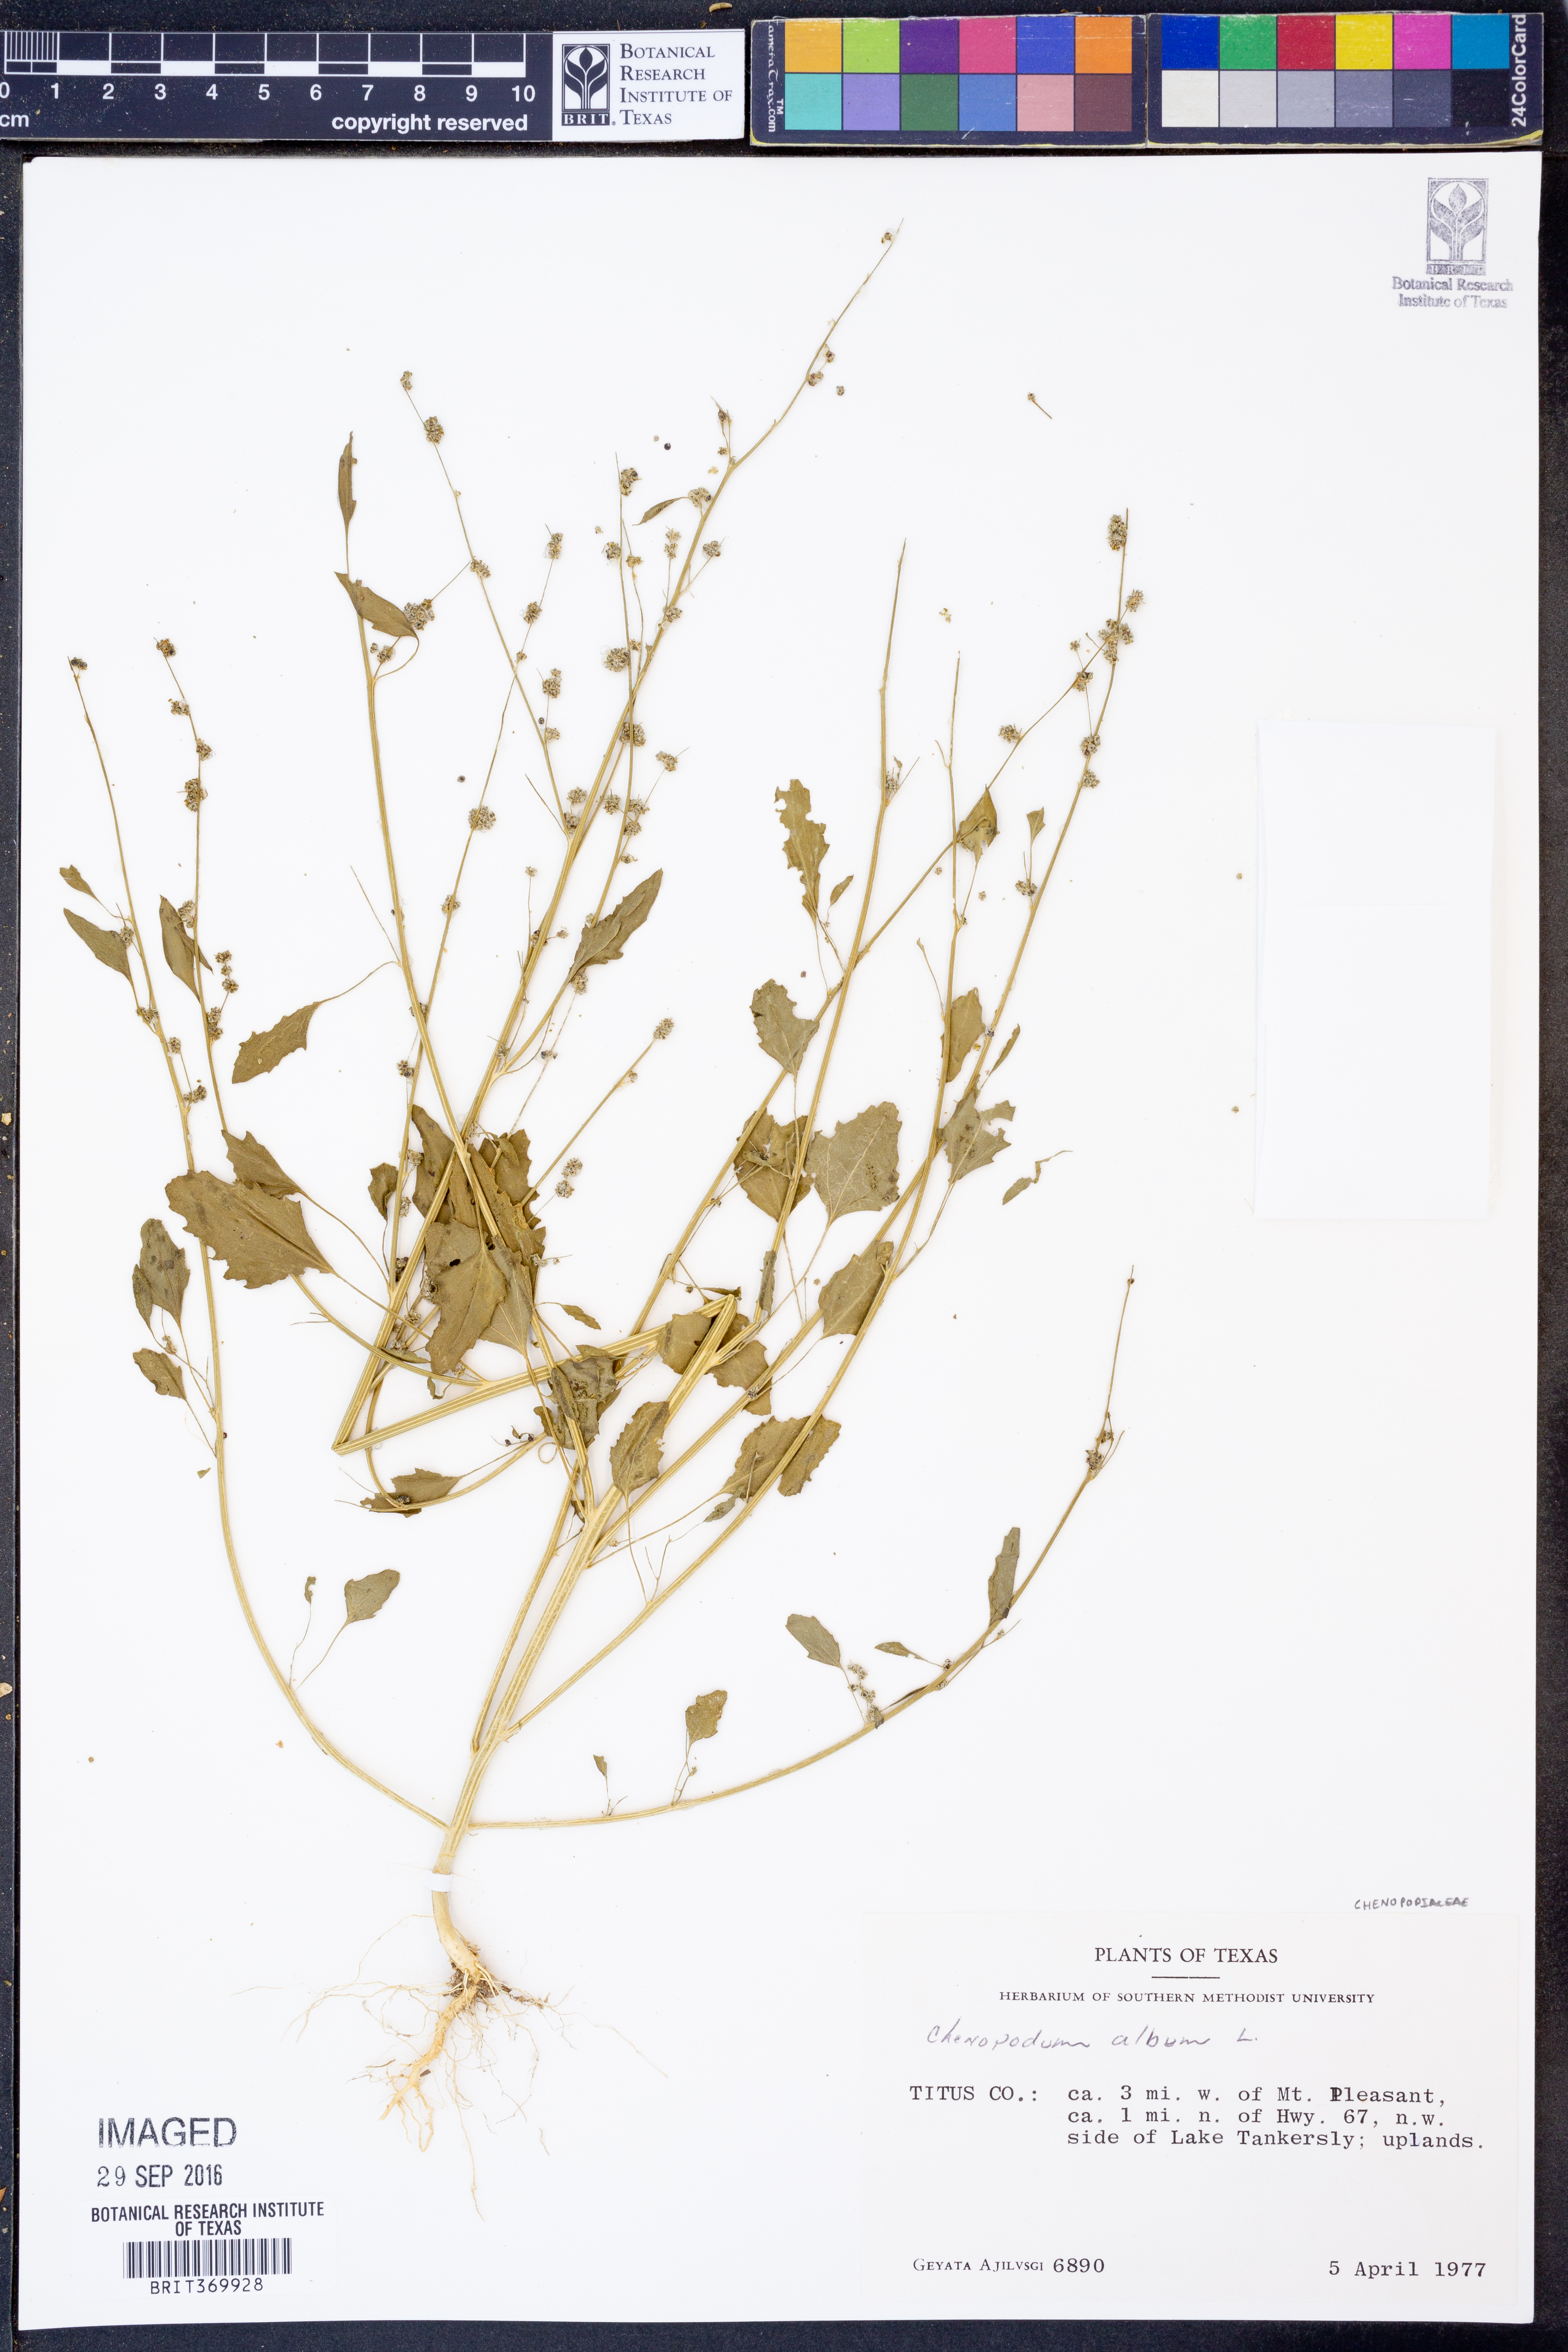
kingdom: Plantae
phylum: Tracheophyta
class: Magnoliopsida
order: Caryophyllales
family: Amaranthaceae
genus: Chenopodium
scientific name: Chenopodium album
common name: Fat-hen
